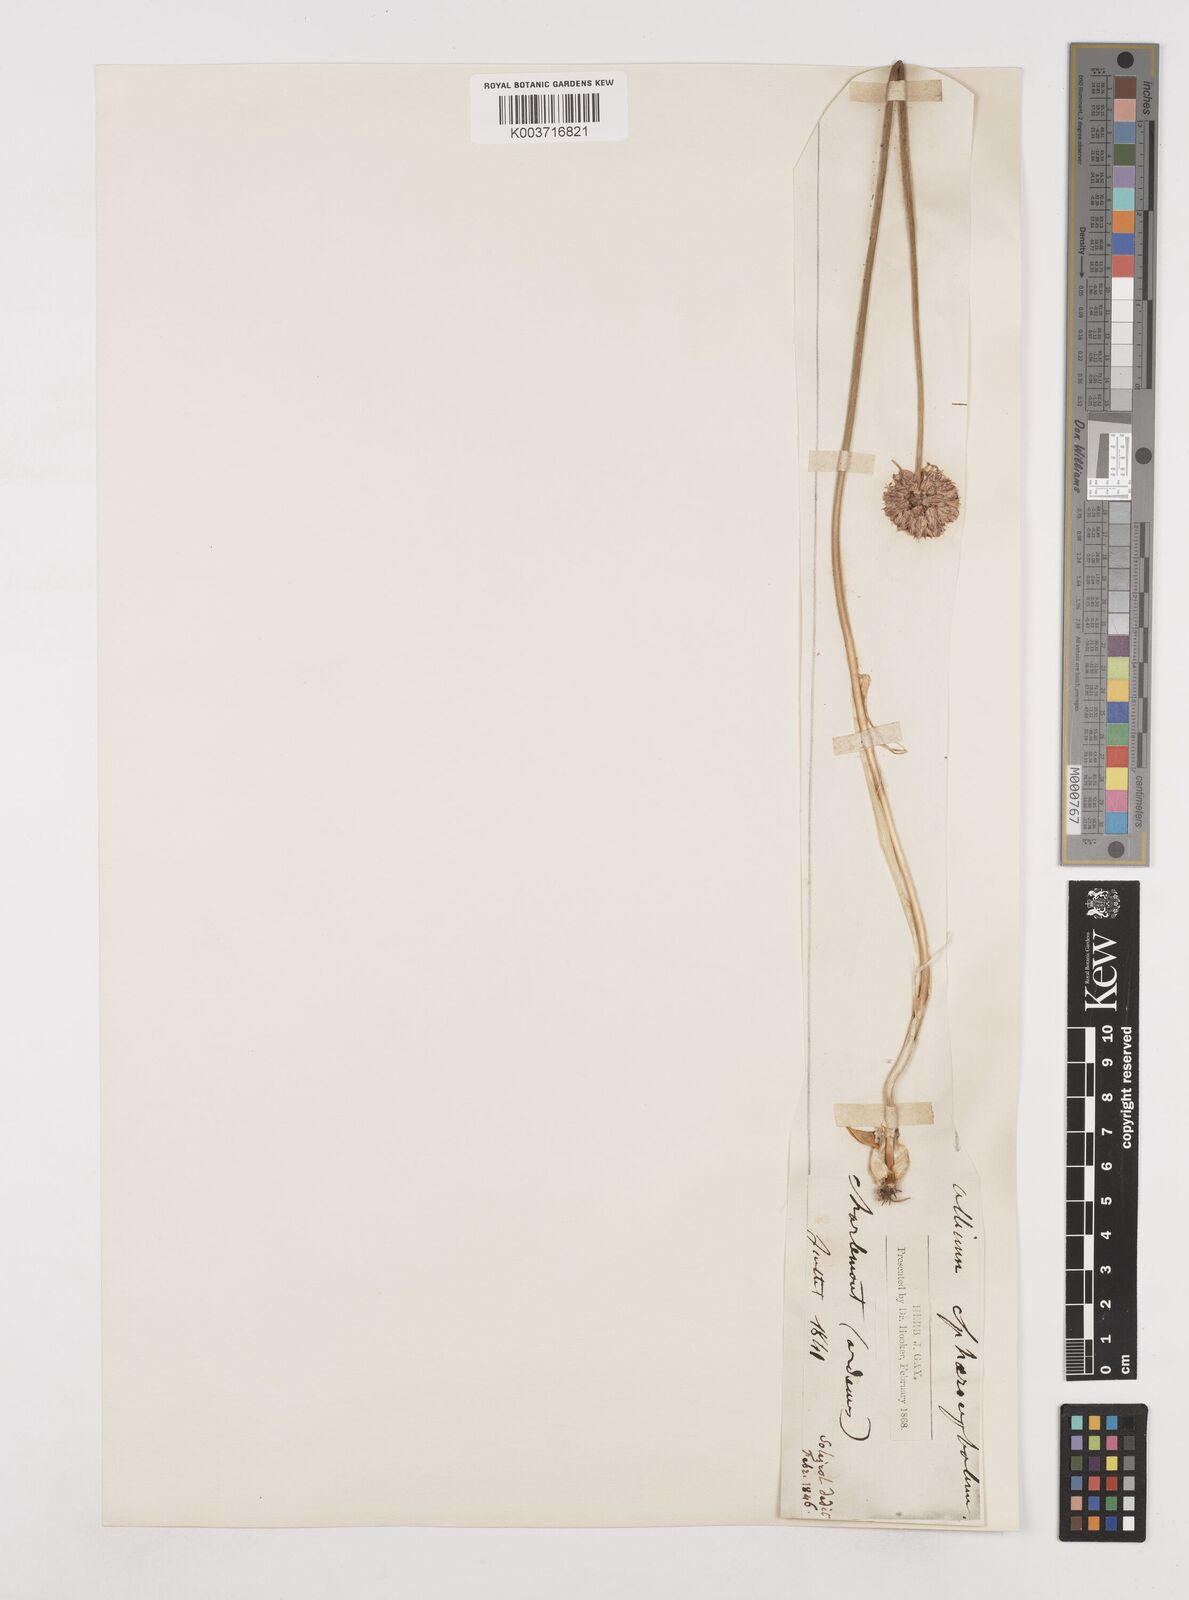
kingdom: Plantae
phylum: Tracheophyta
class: Liliopsida
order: Asparagales
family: Amaryllidaceae
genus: Allium
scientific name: Allium sphaerocephalon
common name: Round-headed leek
